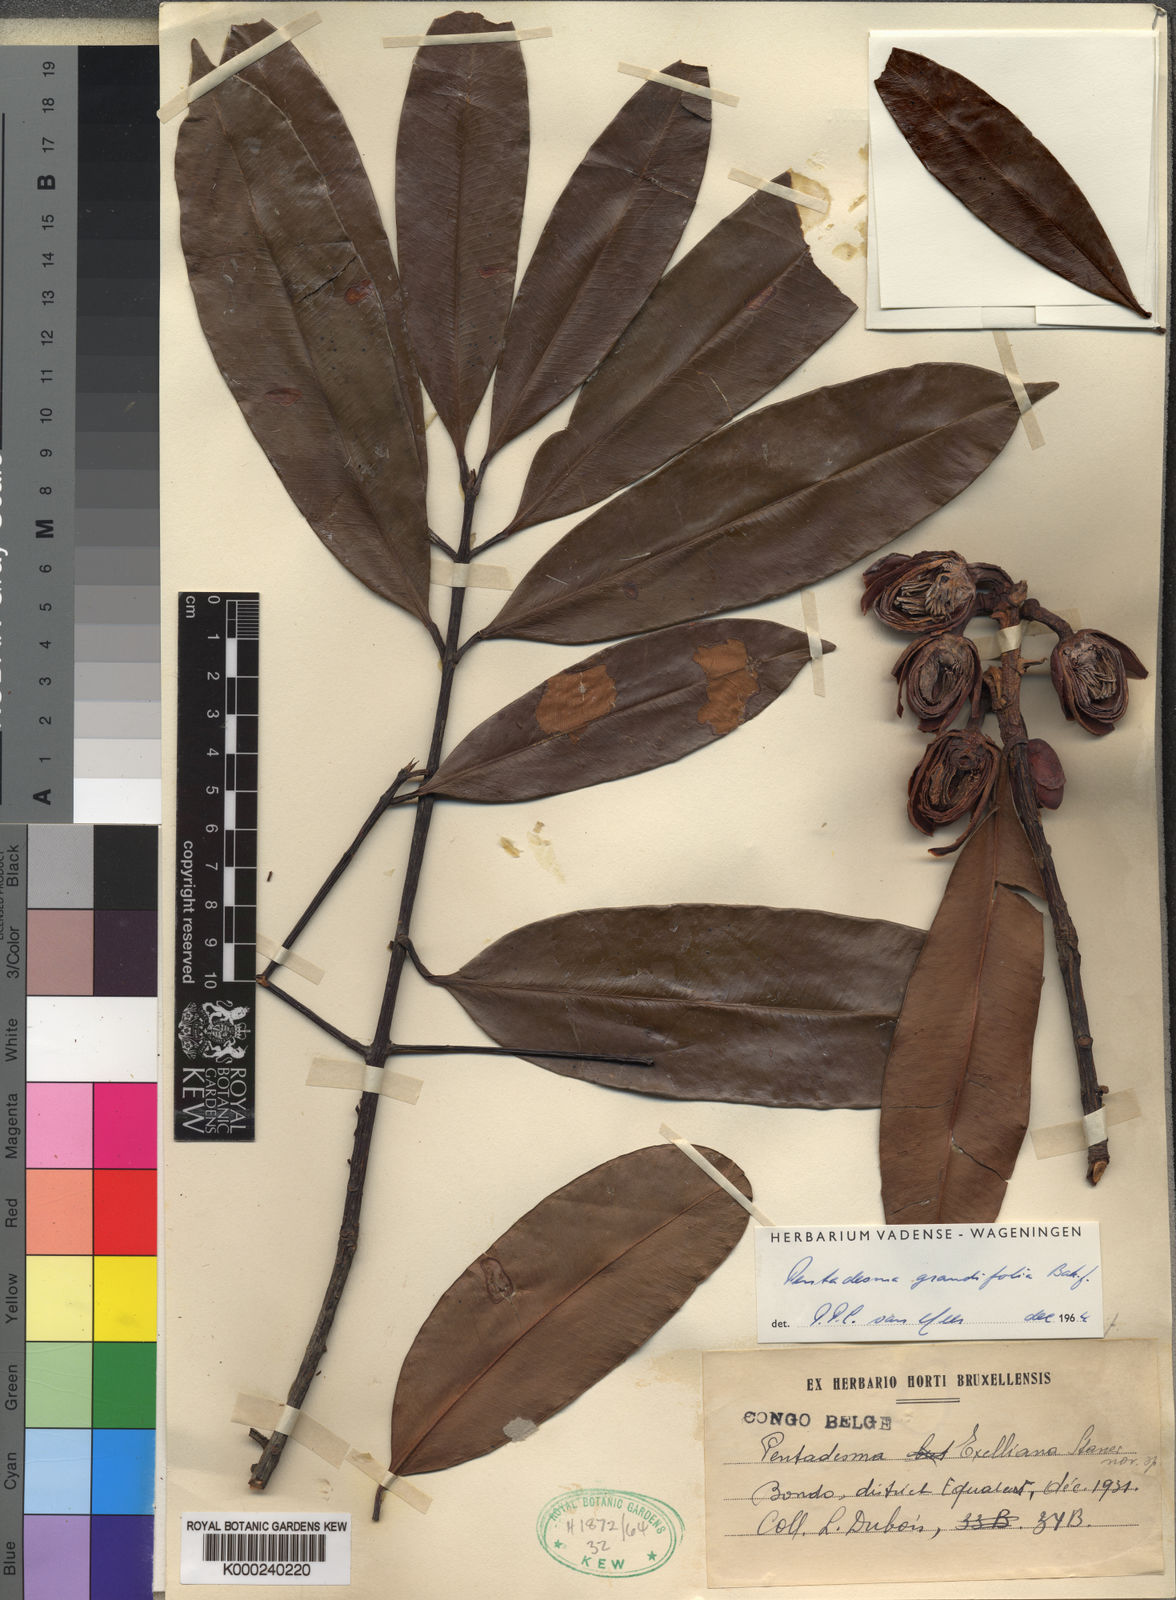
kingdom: Plantae
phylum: Tracheophyta
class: Magnoliopsida
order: Malpighiales
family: Clusiaceae
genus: Pentadesma
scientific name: Pentadesma butyracea
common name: Buttertree
